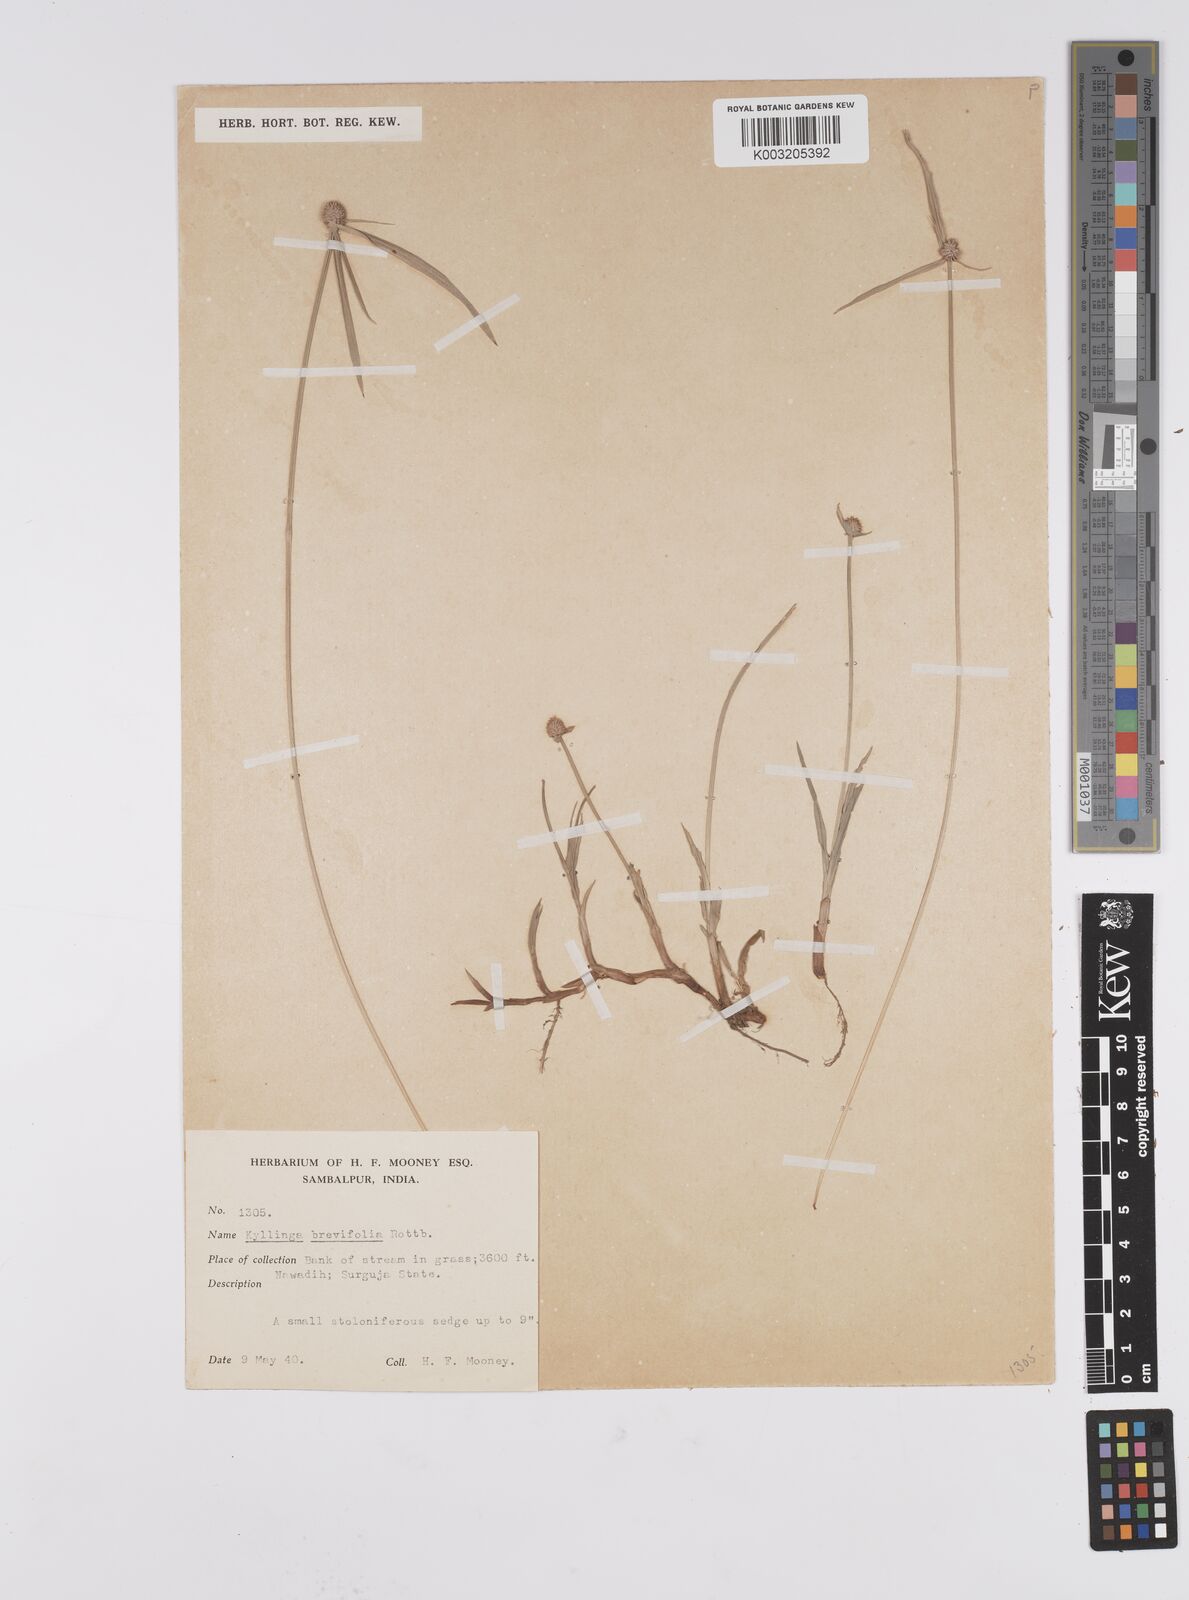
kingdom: Plantae
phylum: Tracheophyta
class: Liliopsida
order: Poales
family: Cyperaceae
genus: Cyperus
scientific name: Cyperus brevifolius
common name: Globe kyllinga
